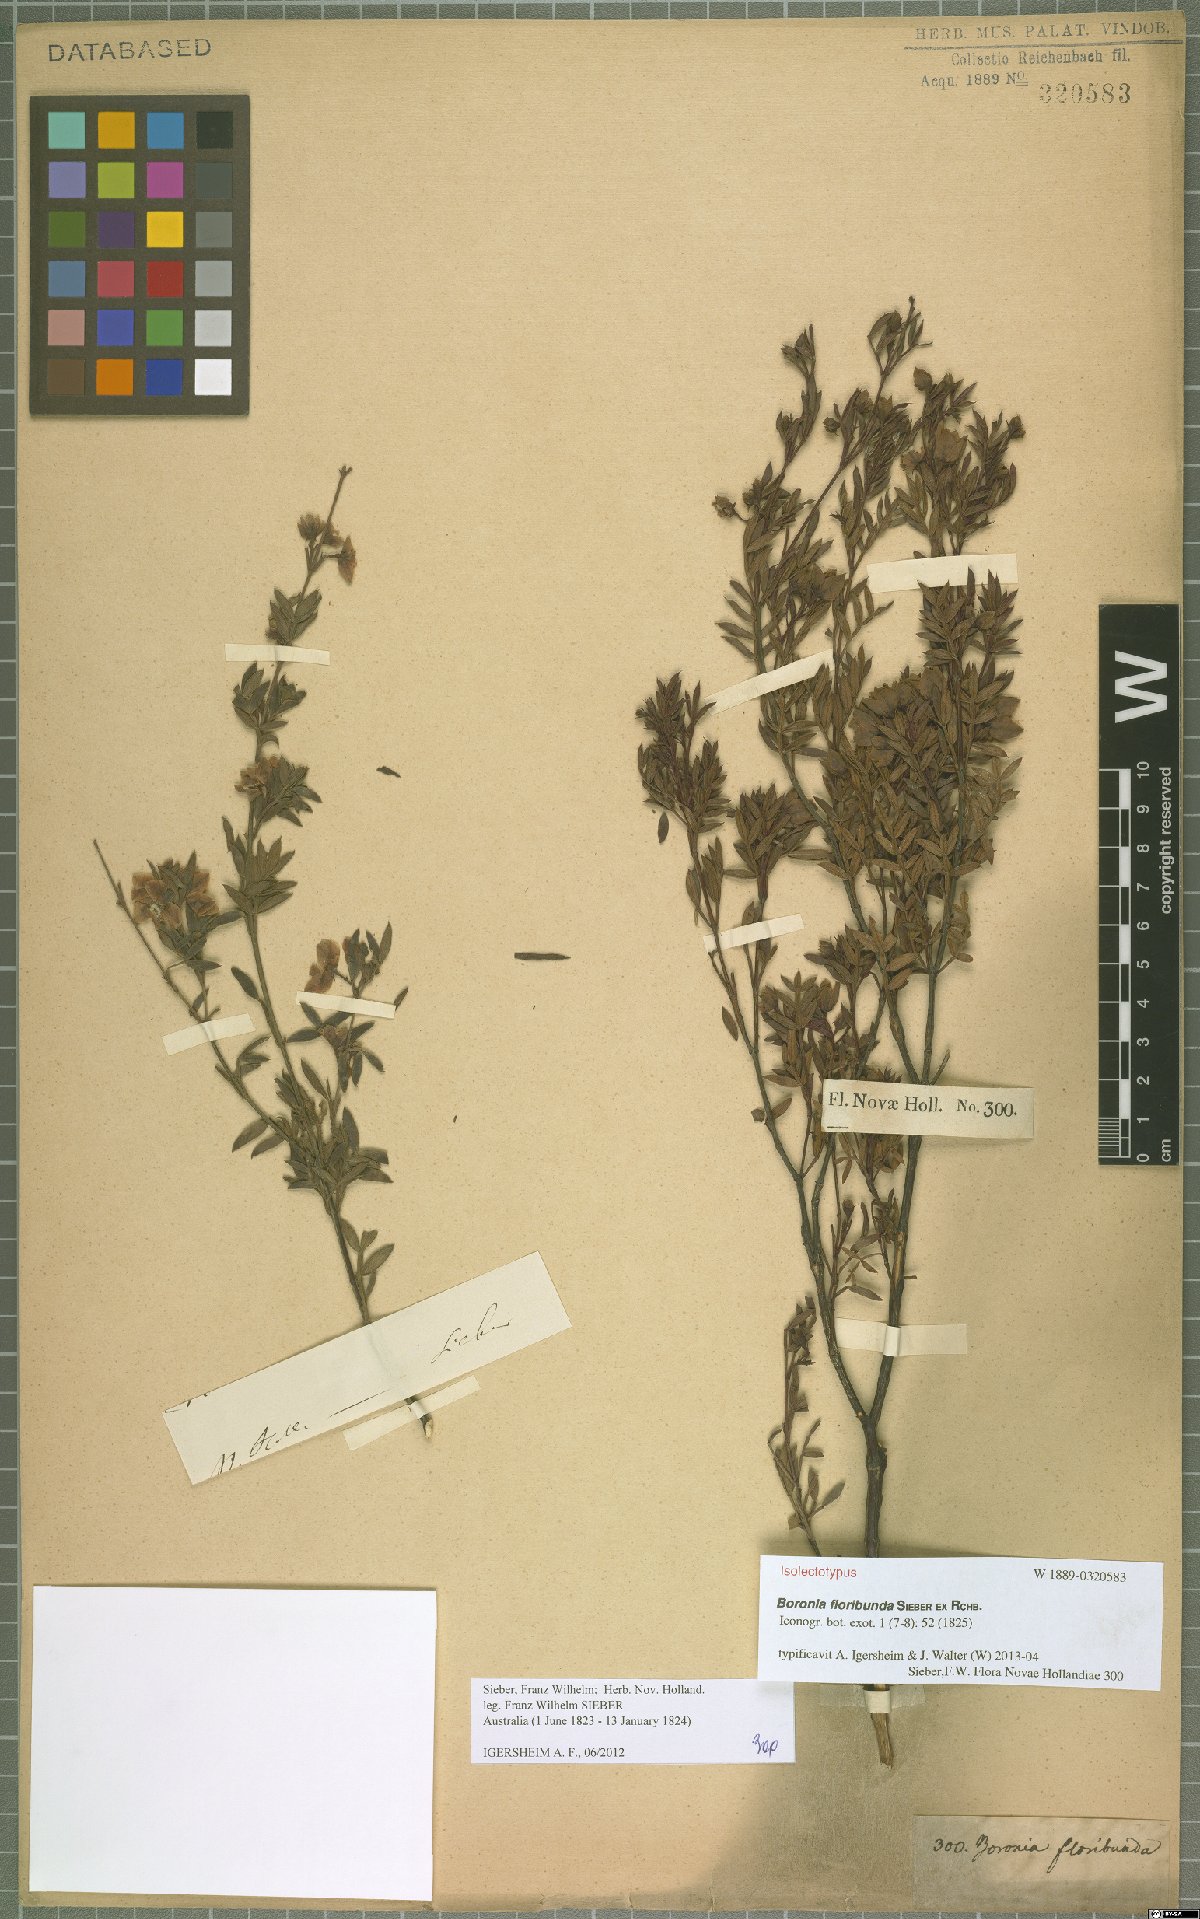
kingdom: Plantae
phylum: Tracheophyta
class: Magnoliopsida
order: Sapindales
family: Rutaceae
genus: Boronia
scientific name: Boronia floribunda
